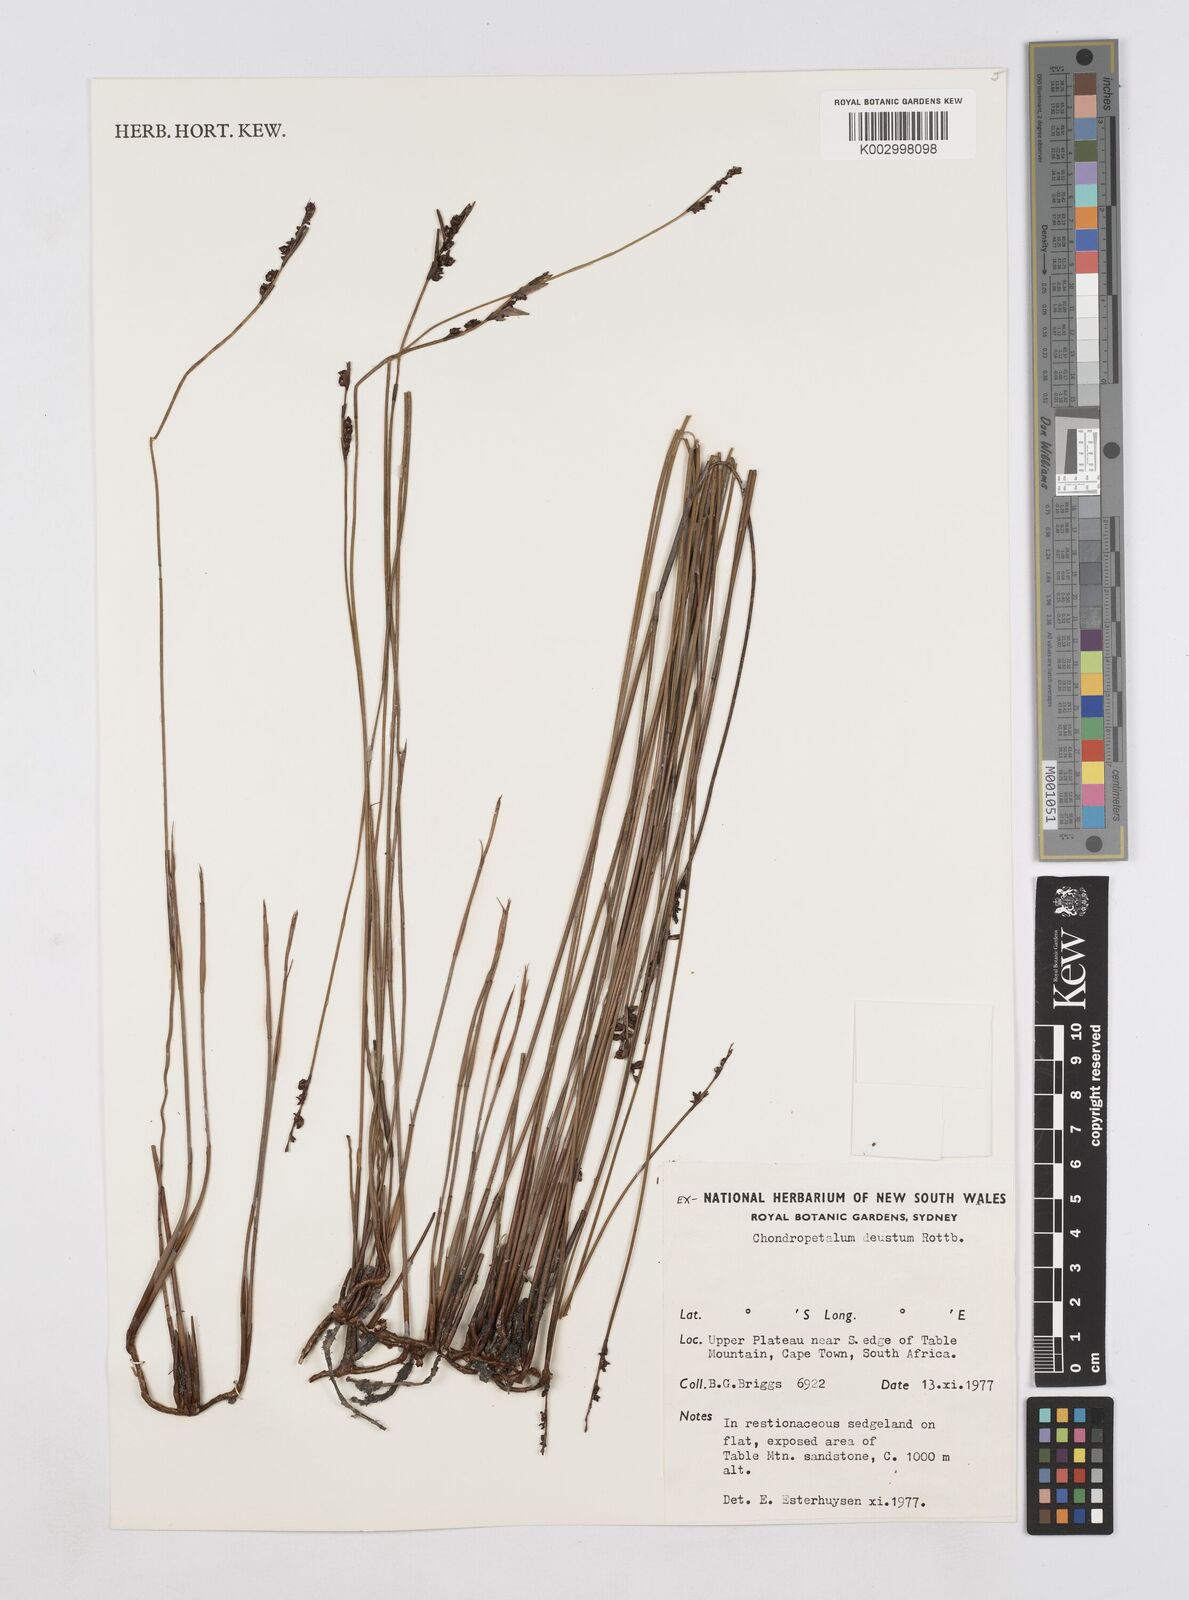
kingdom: Plantae
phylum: Tracheophyta
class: Liliopsida
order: Poales
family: Restionaceae
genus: Elegia
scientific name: Elegia deusta
